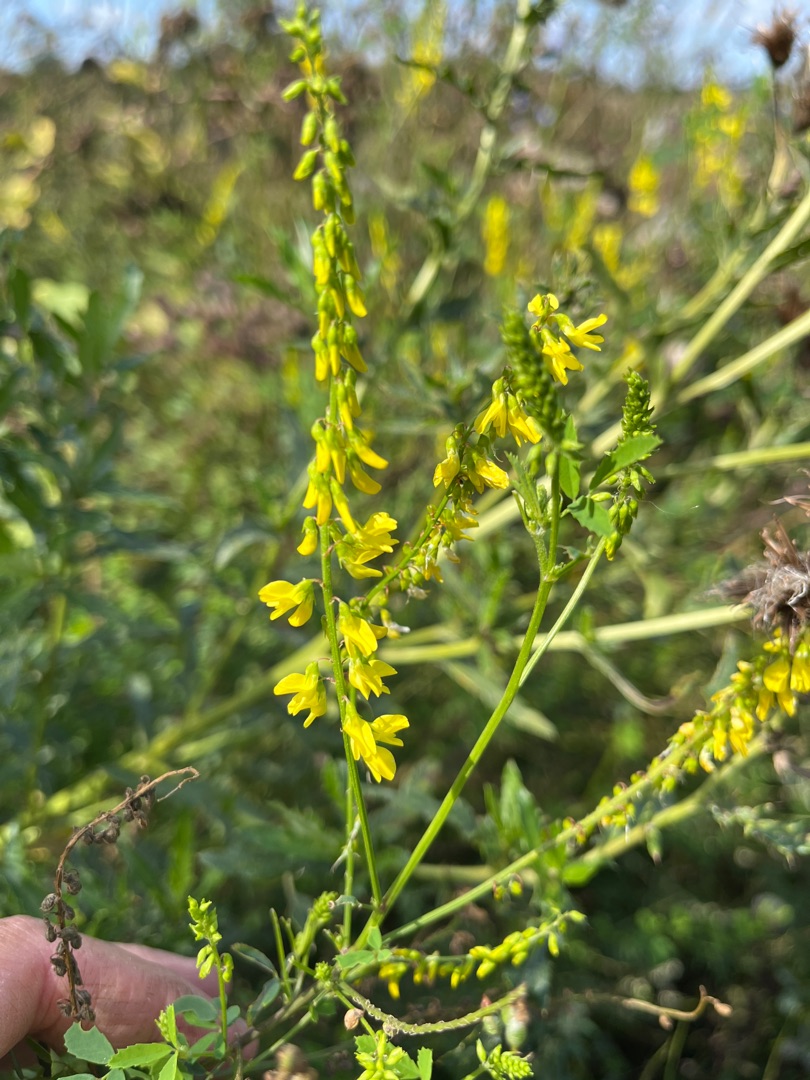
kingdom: Plantae
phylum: Tracheophyta
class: Magnoliopsida
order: Fabales
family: Fabaceae
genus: Melilotus
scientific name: Melilotus officinalis
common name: Mark-stenkløver
